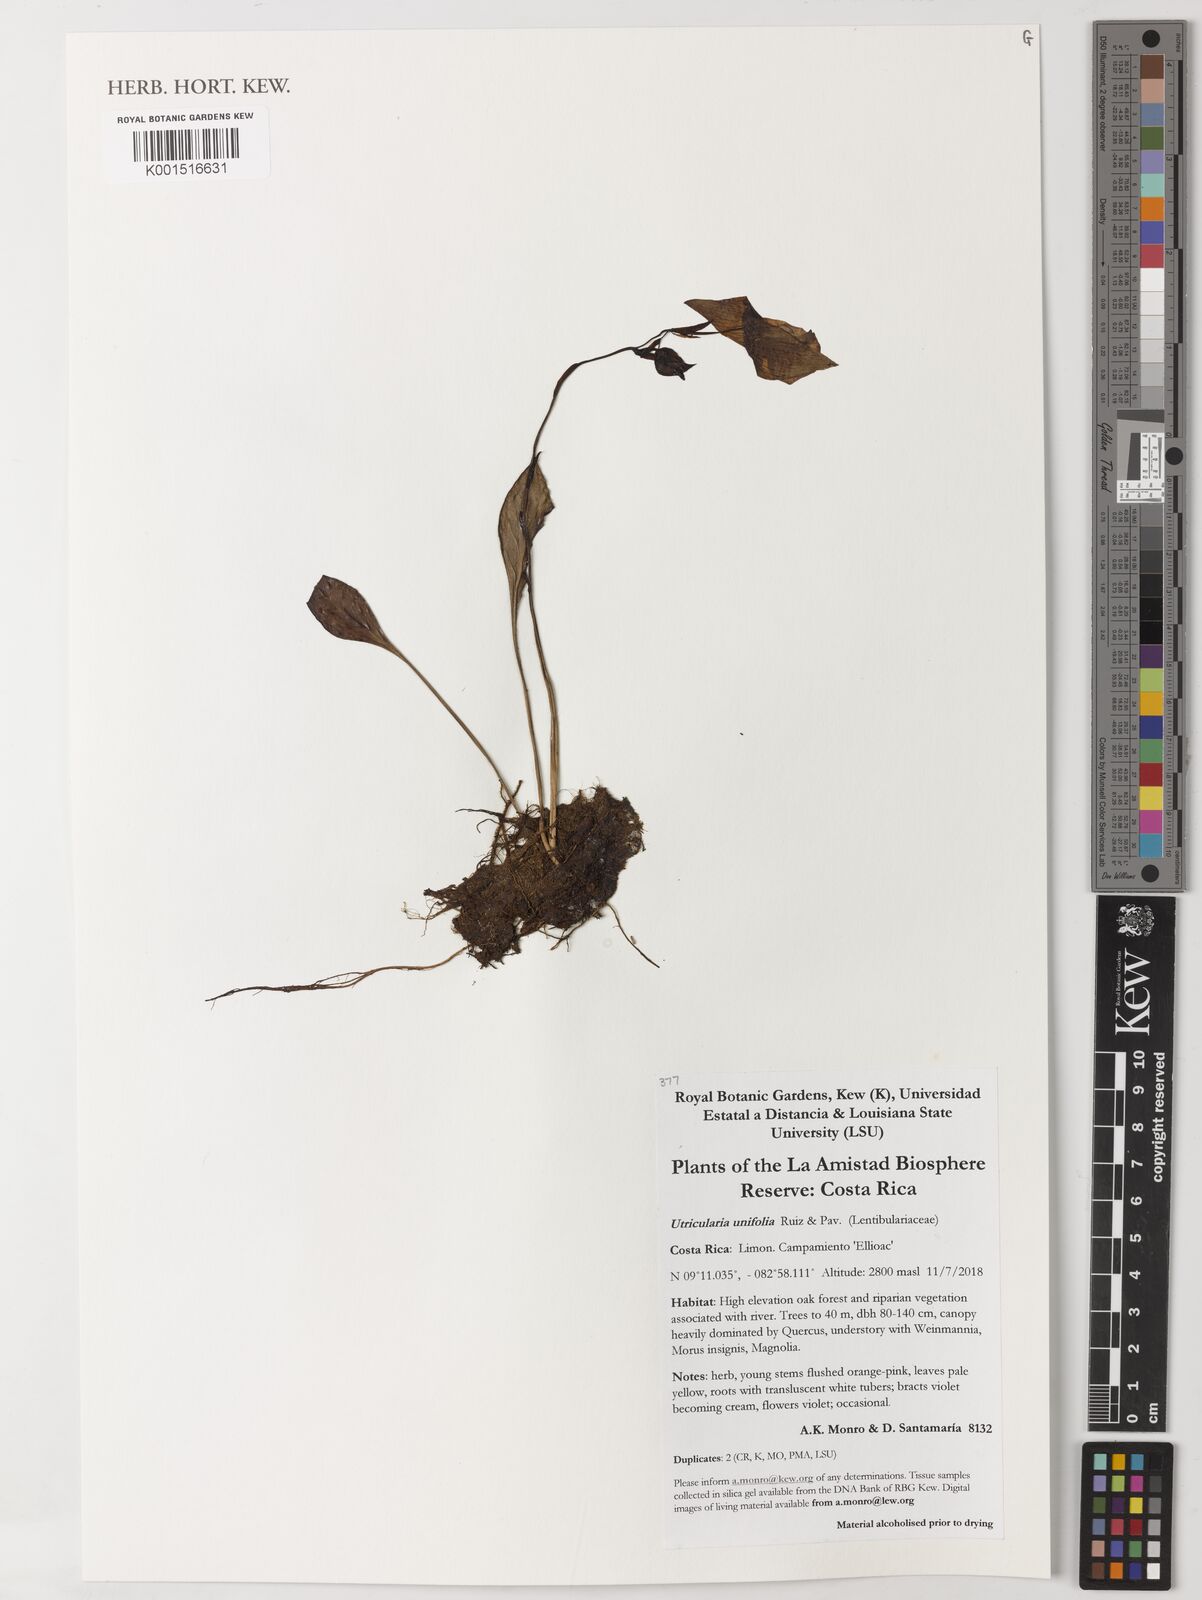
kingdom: Plantae
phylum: Tracheophyta
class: Magnoliopsida
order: Lamiales
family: Lentibulariaceae
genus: Utricularia
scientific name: Utricularia
